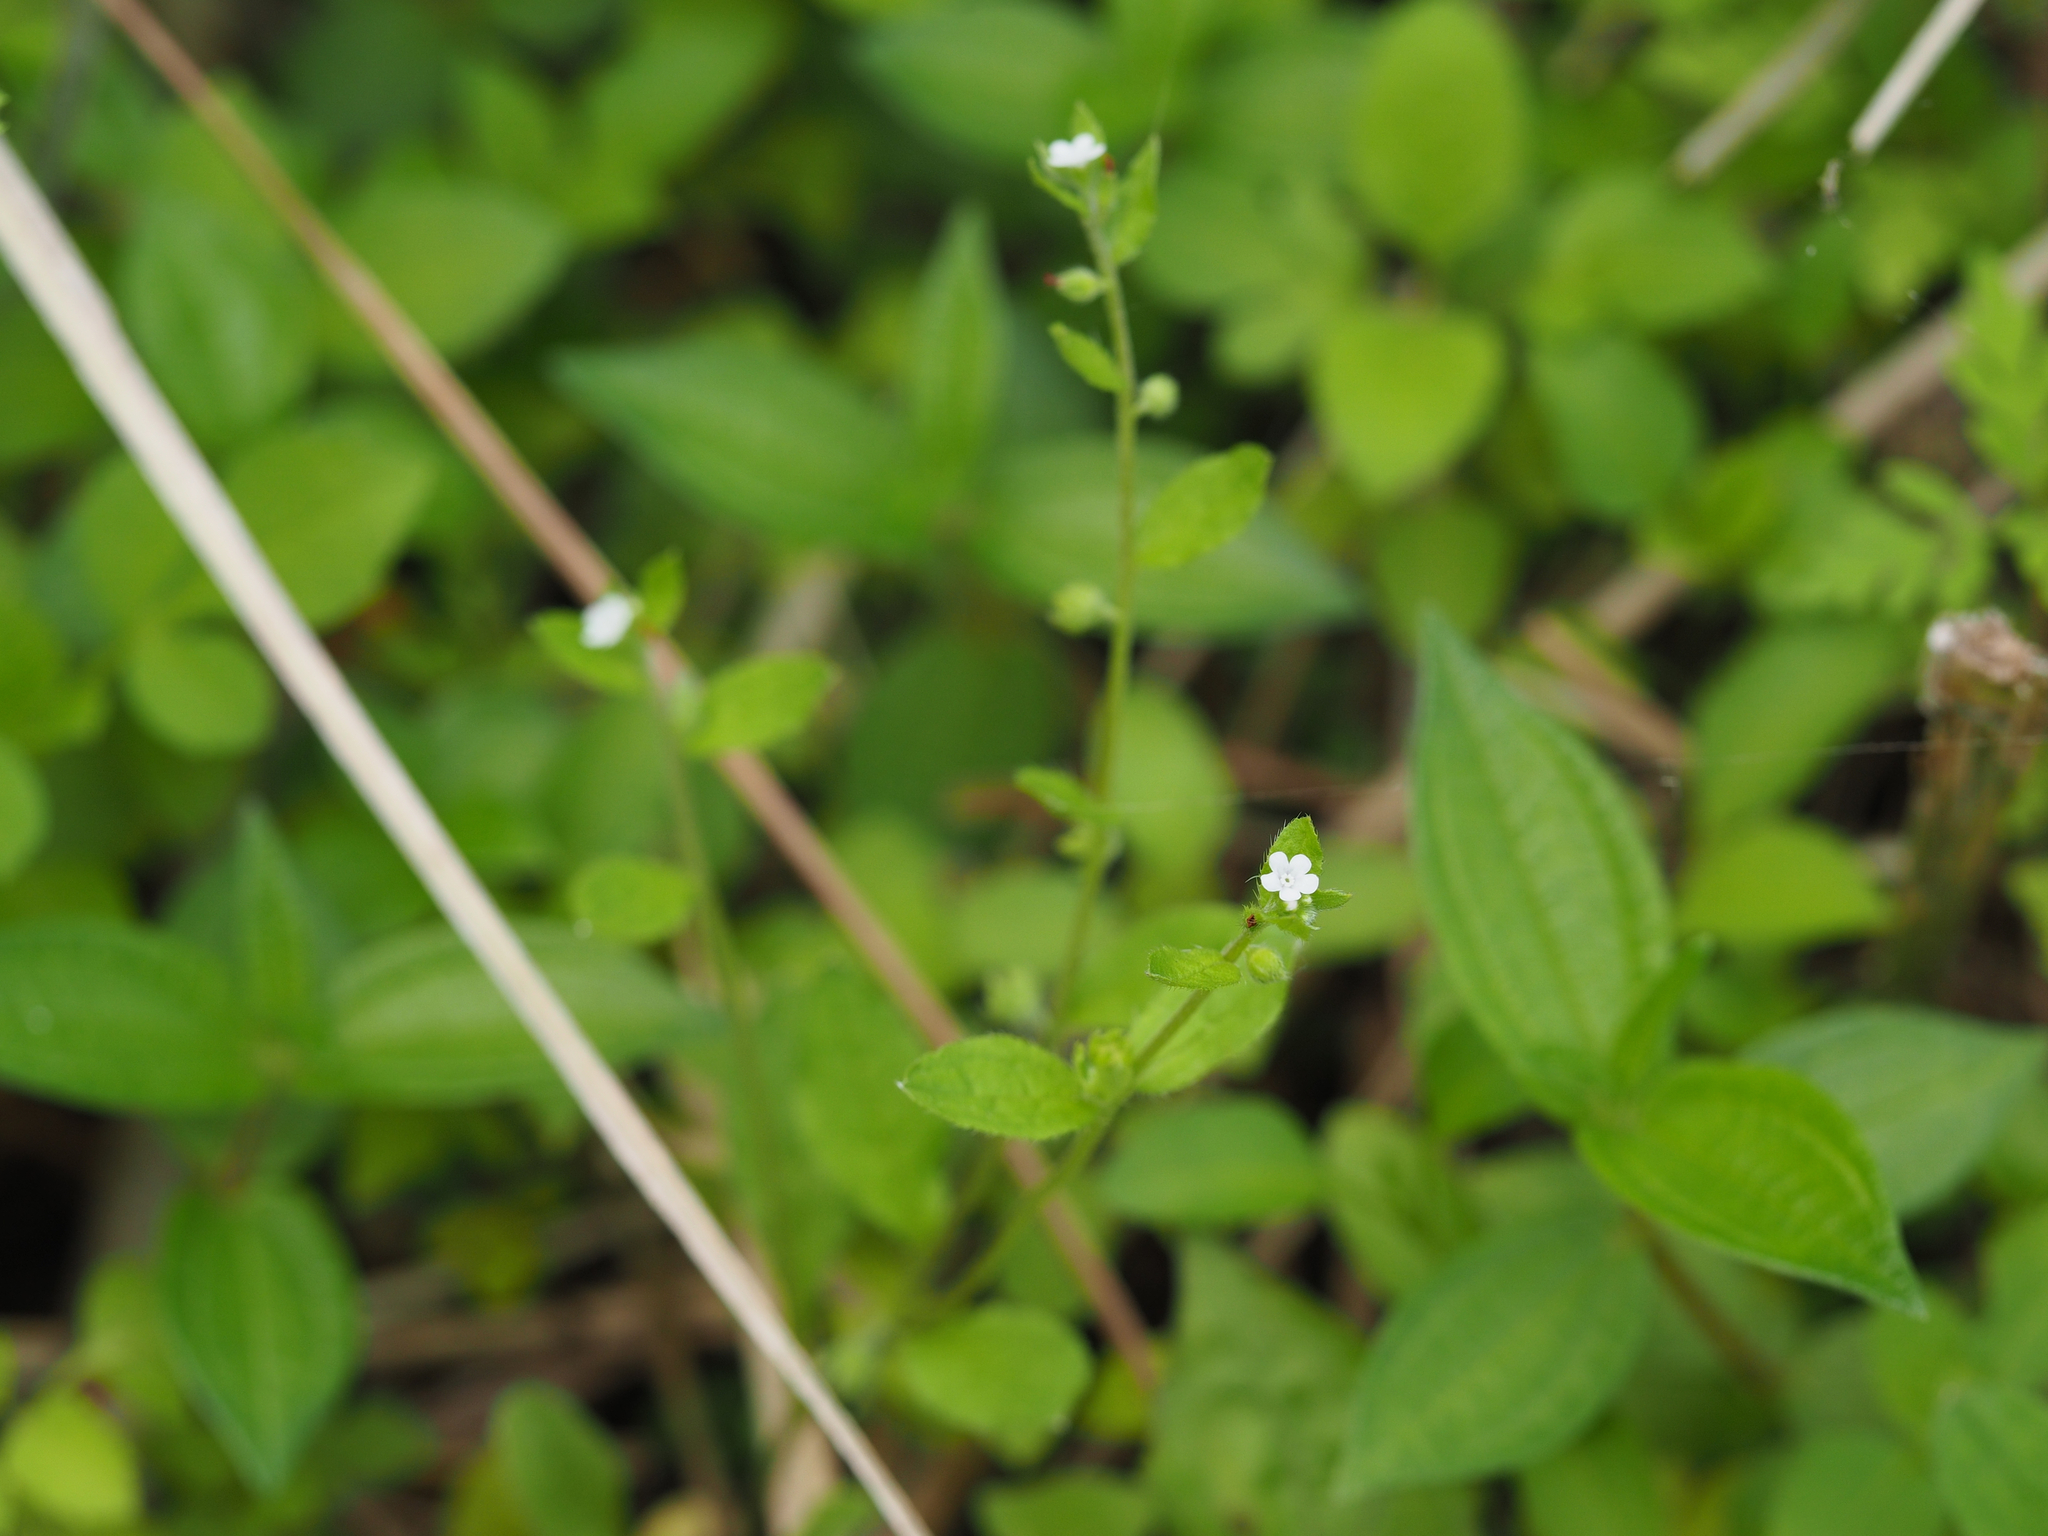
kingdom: Plantae
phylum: Tracheophyta
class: Magnoliopsida
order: Boraginales
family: Boraginaceae
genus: Bothriospermum
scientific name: Bothriospermum zeylanicum
